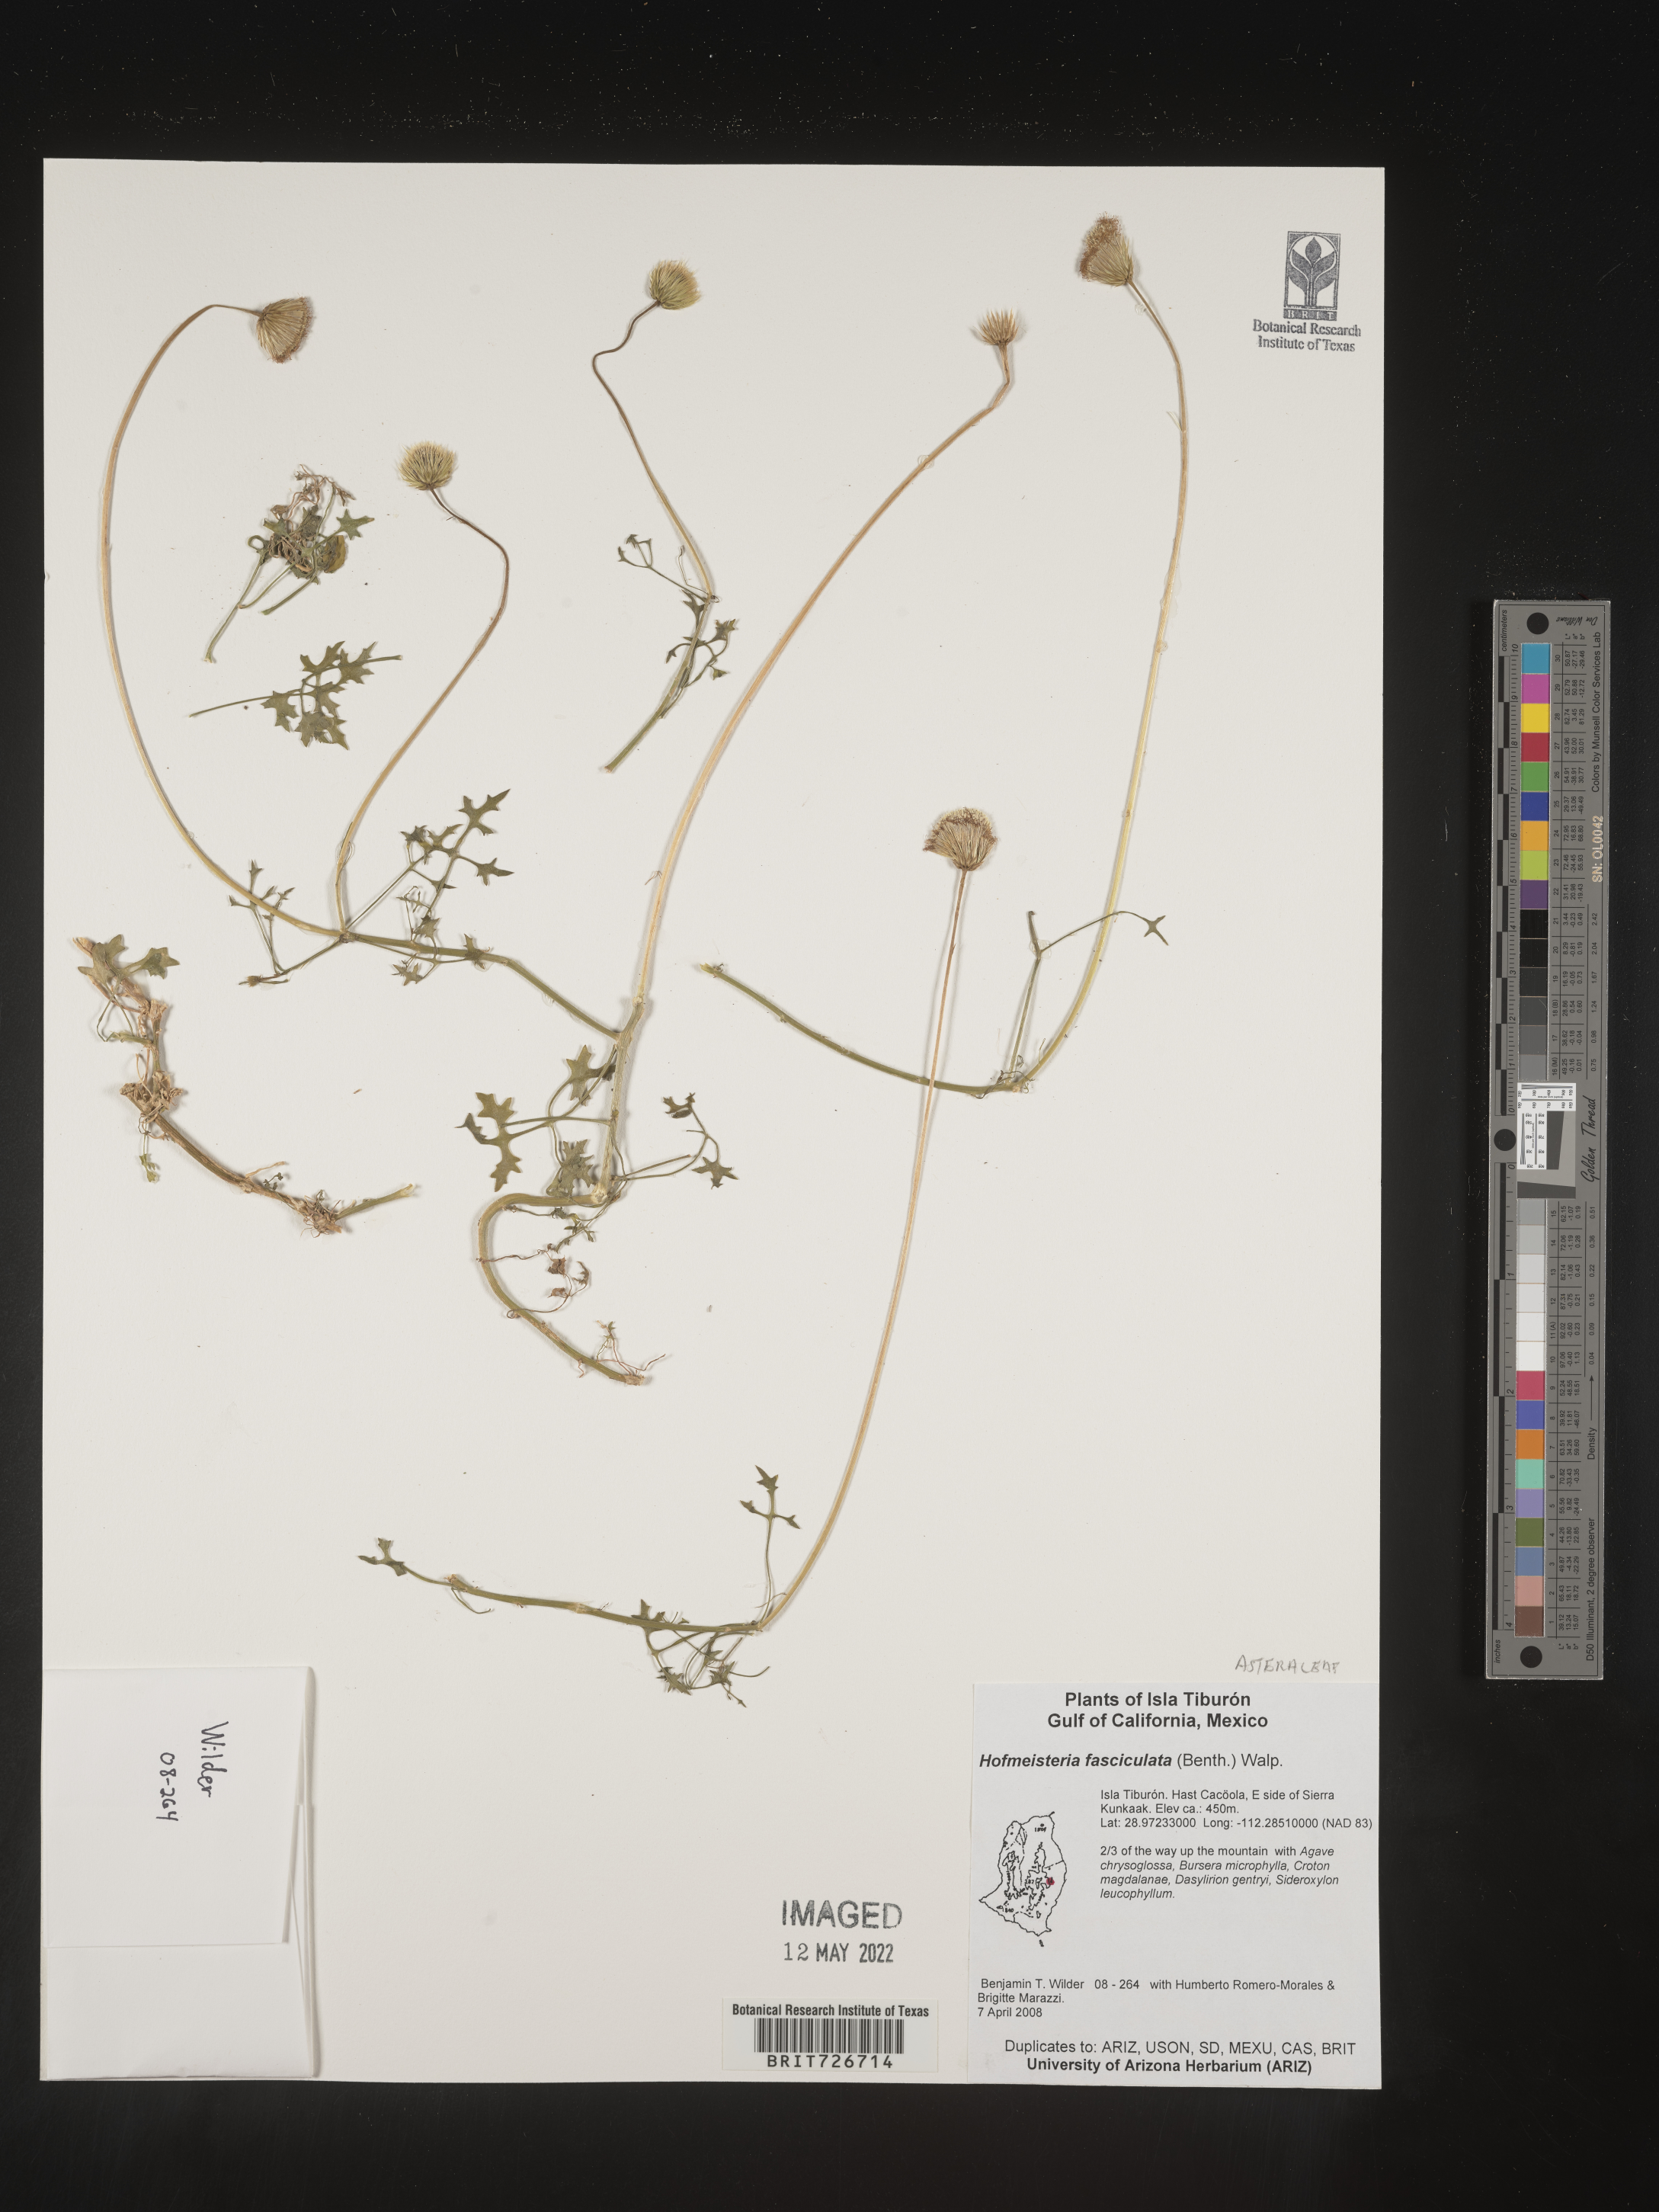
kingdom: Plantae
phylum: Tracheophyta
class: Magnoliopsida
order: Asterales
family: Asteraceae
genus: Hofmeisteria
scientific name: Hofmeisteria
